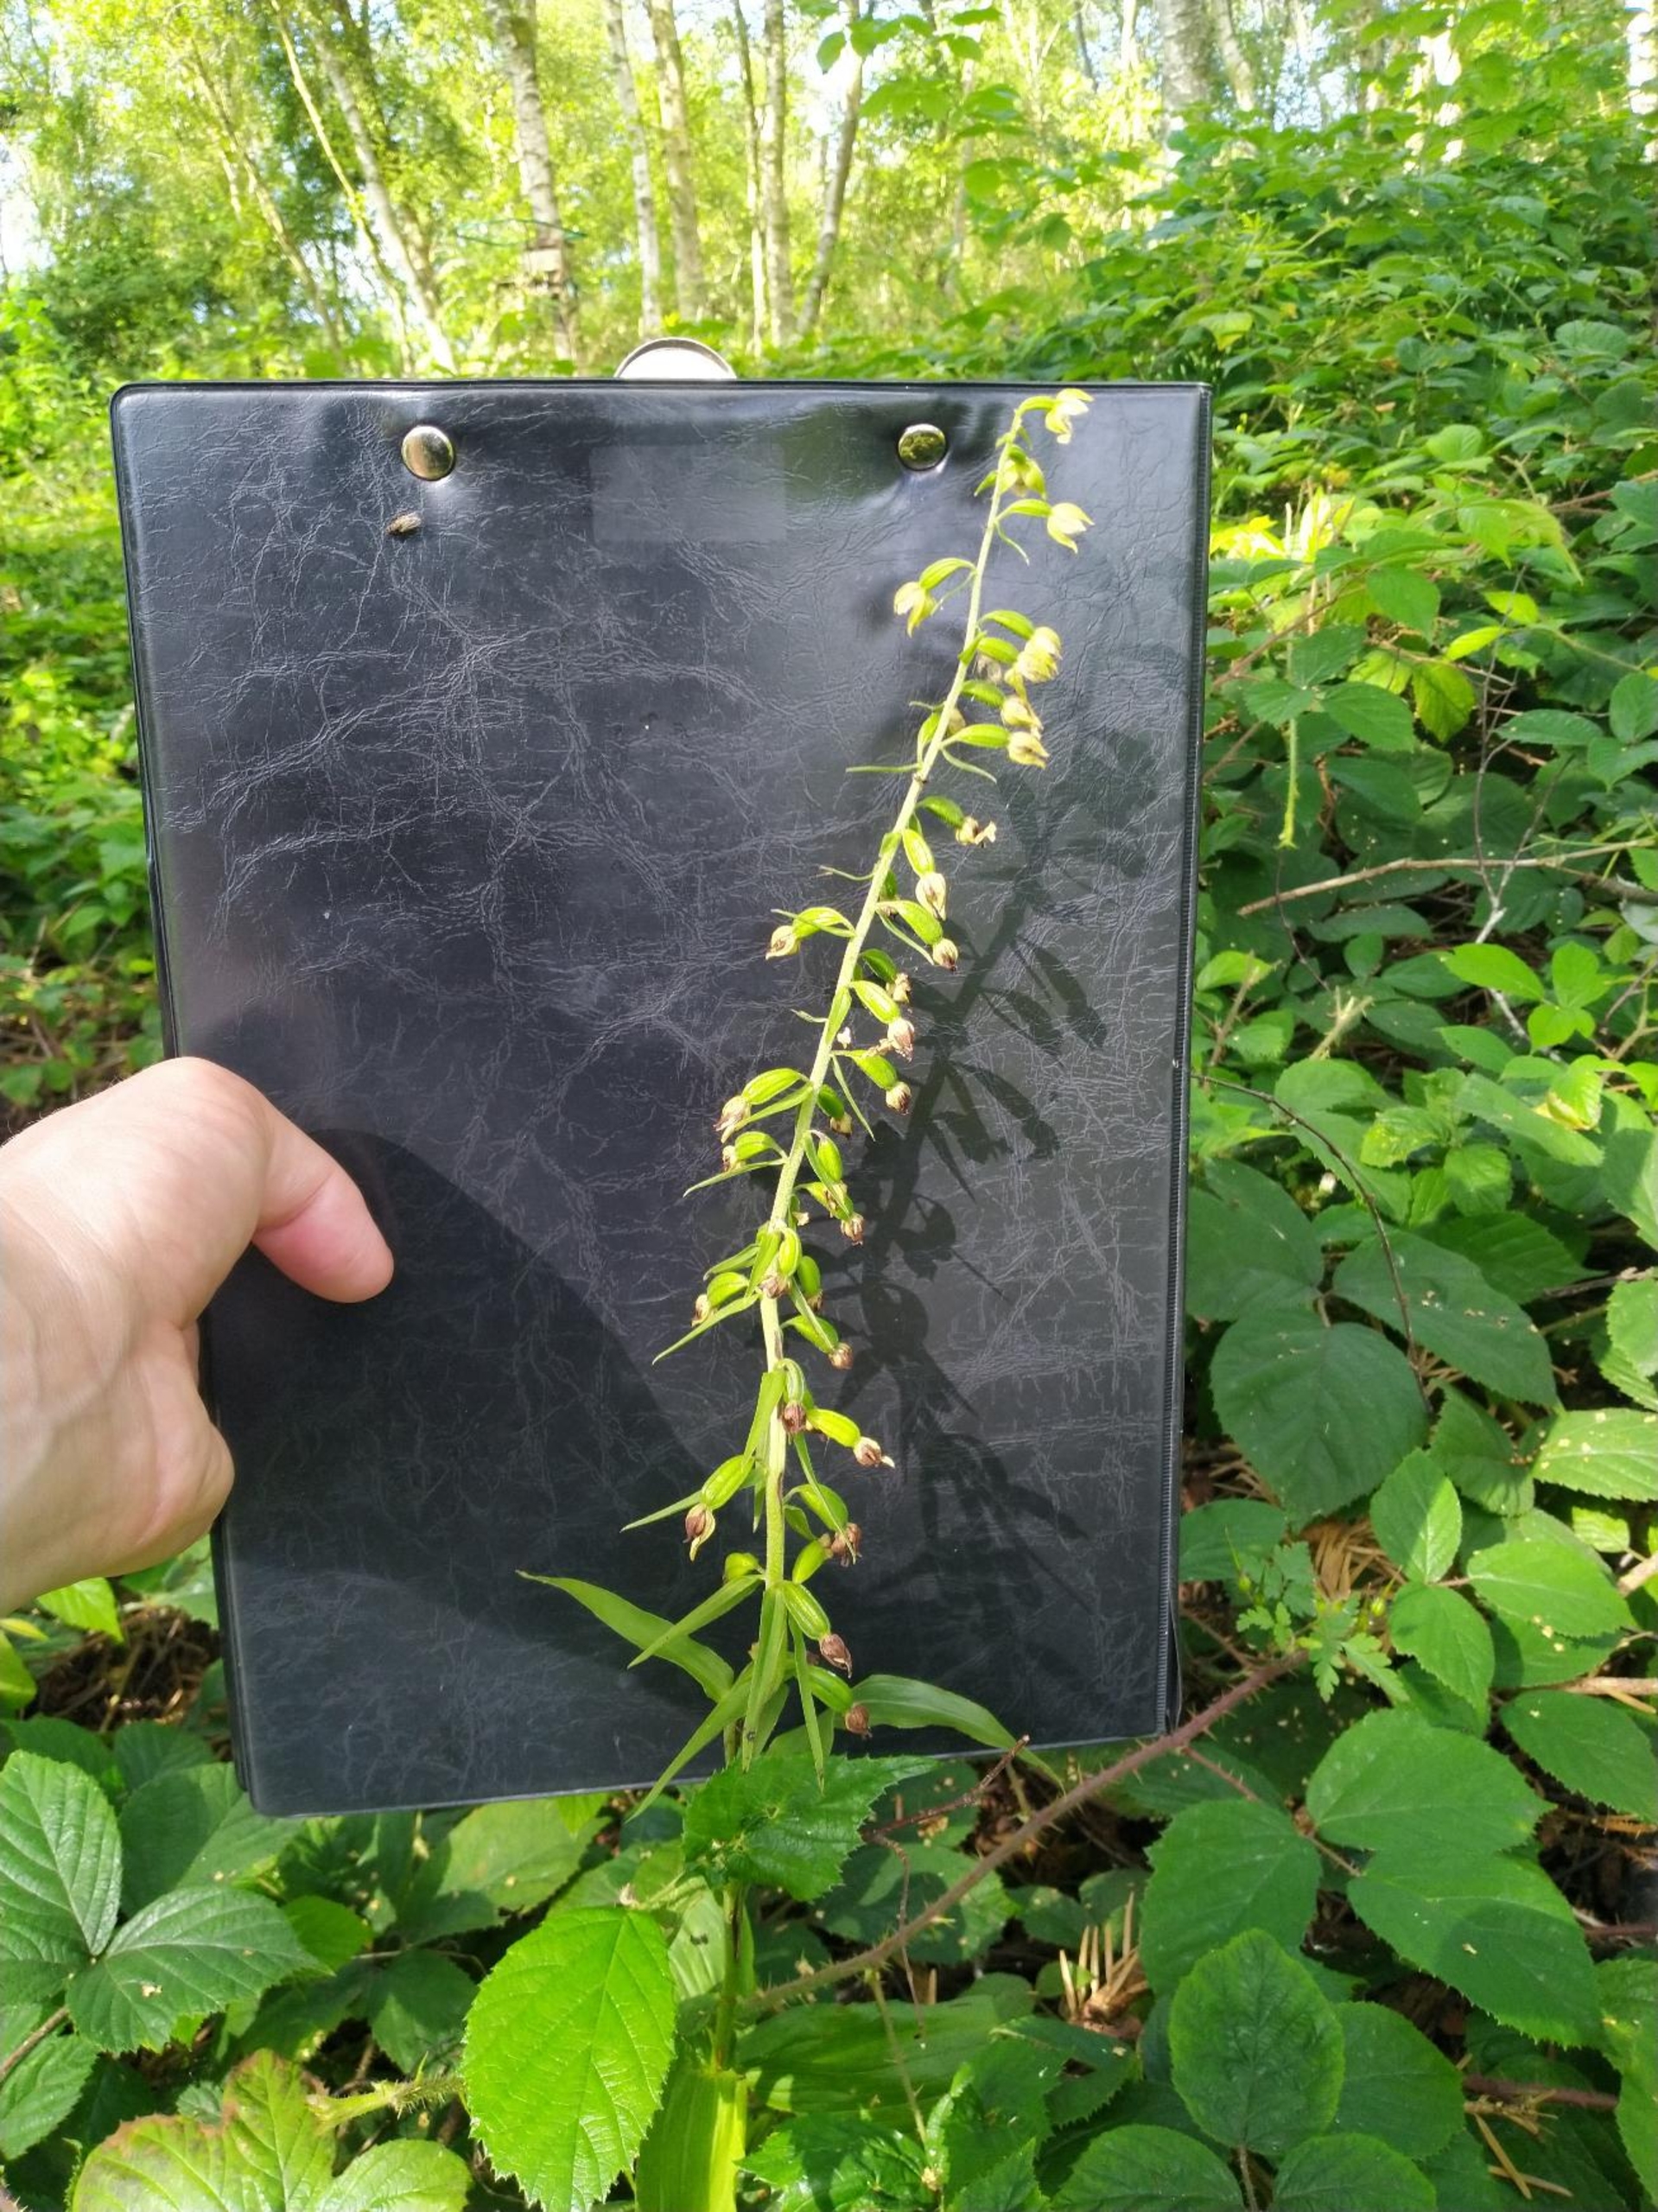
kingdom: Plantae
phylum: Tracheophyta
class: Liliopsida
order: Asparagales
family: Orchidaceae
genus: Epipactis
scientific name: Epipactis helleborine
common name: Skov-hullæbe
